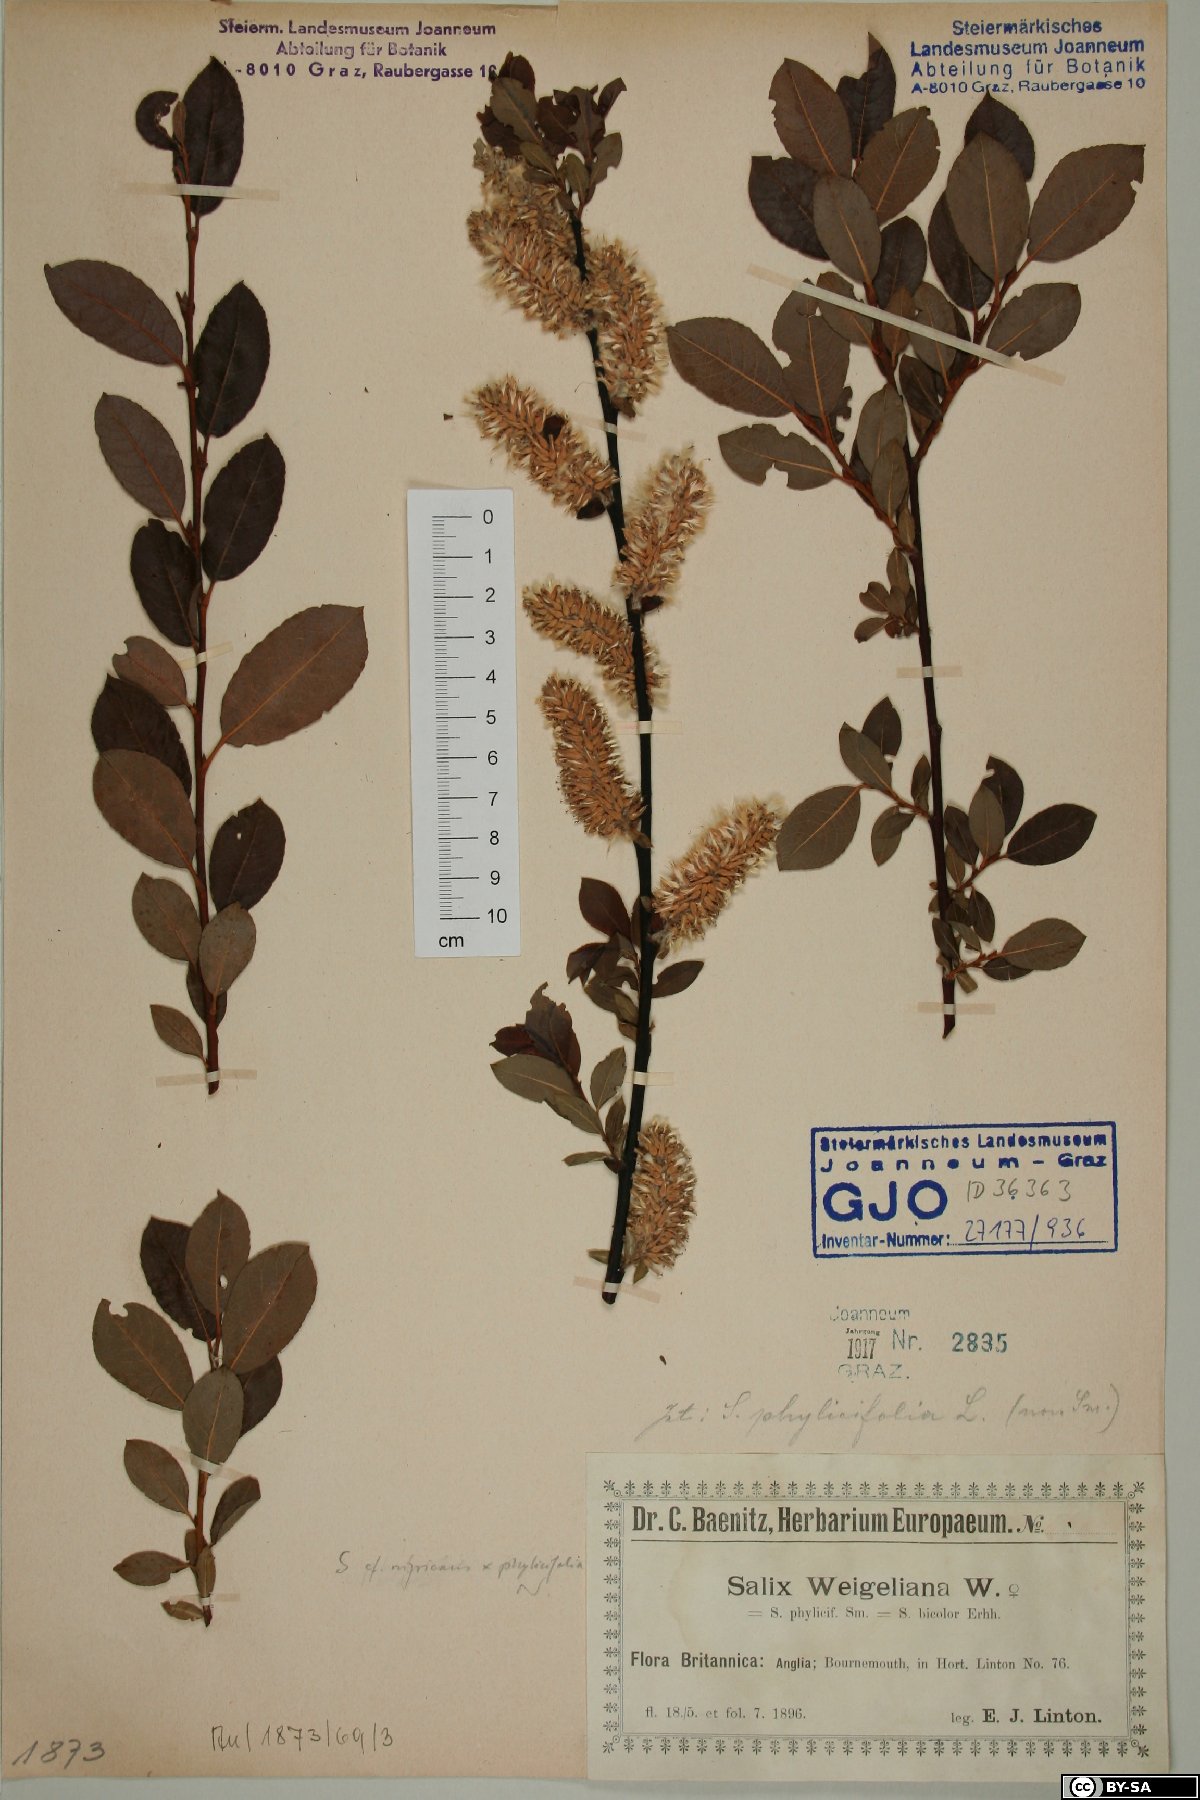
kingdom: Plantae
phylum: Tracheophyta
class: Magnoliopsida
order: Malpighiales
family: Salicaceae
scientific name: Salicaceae
